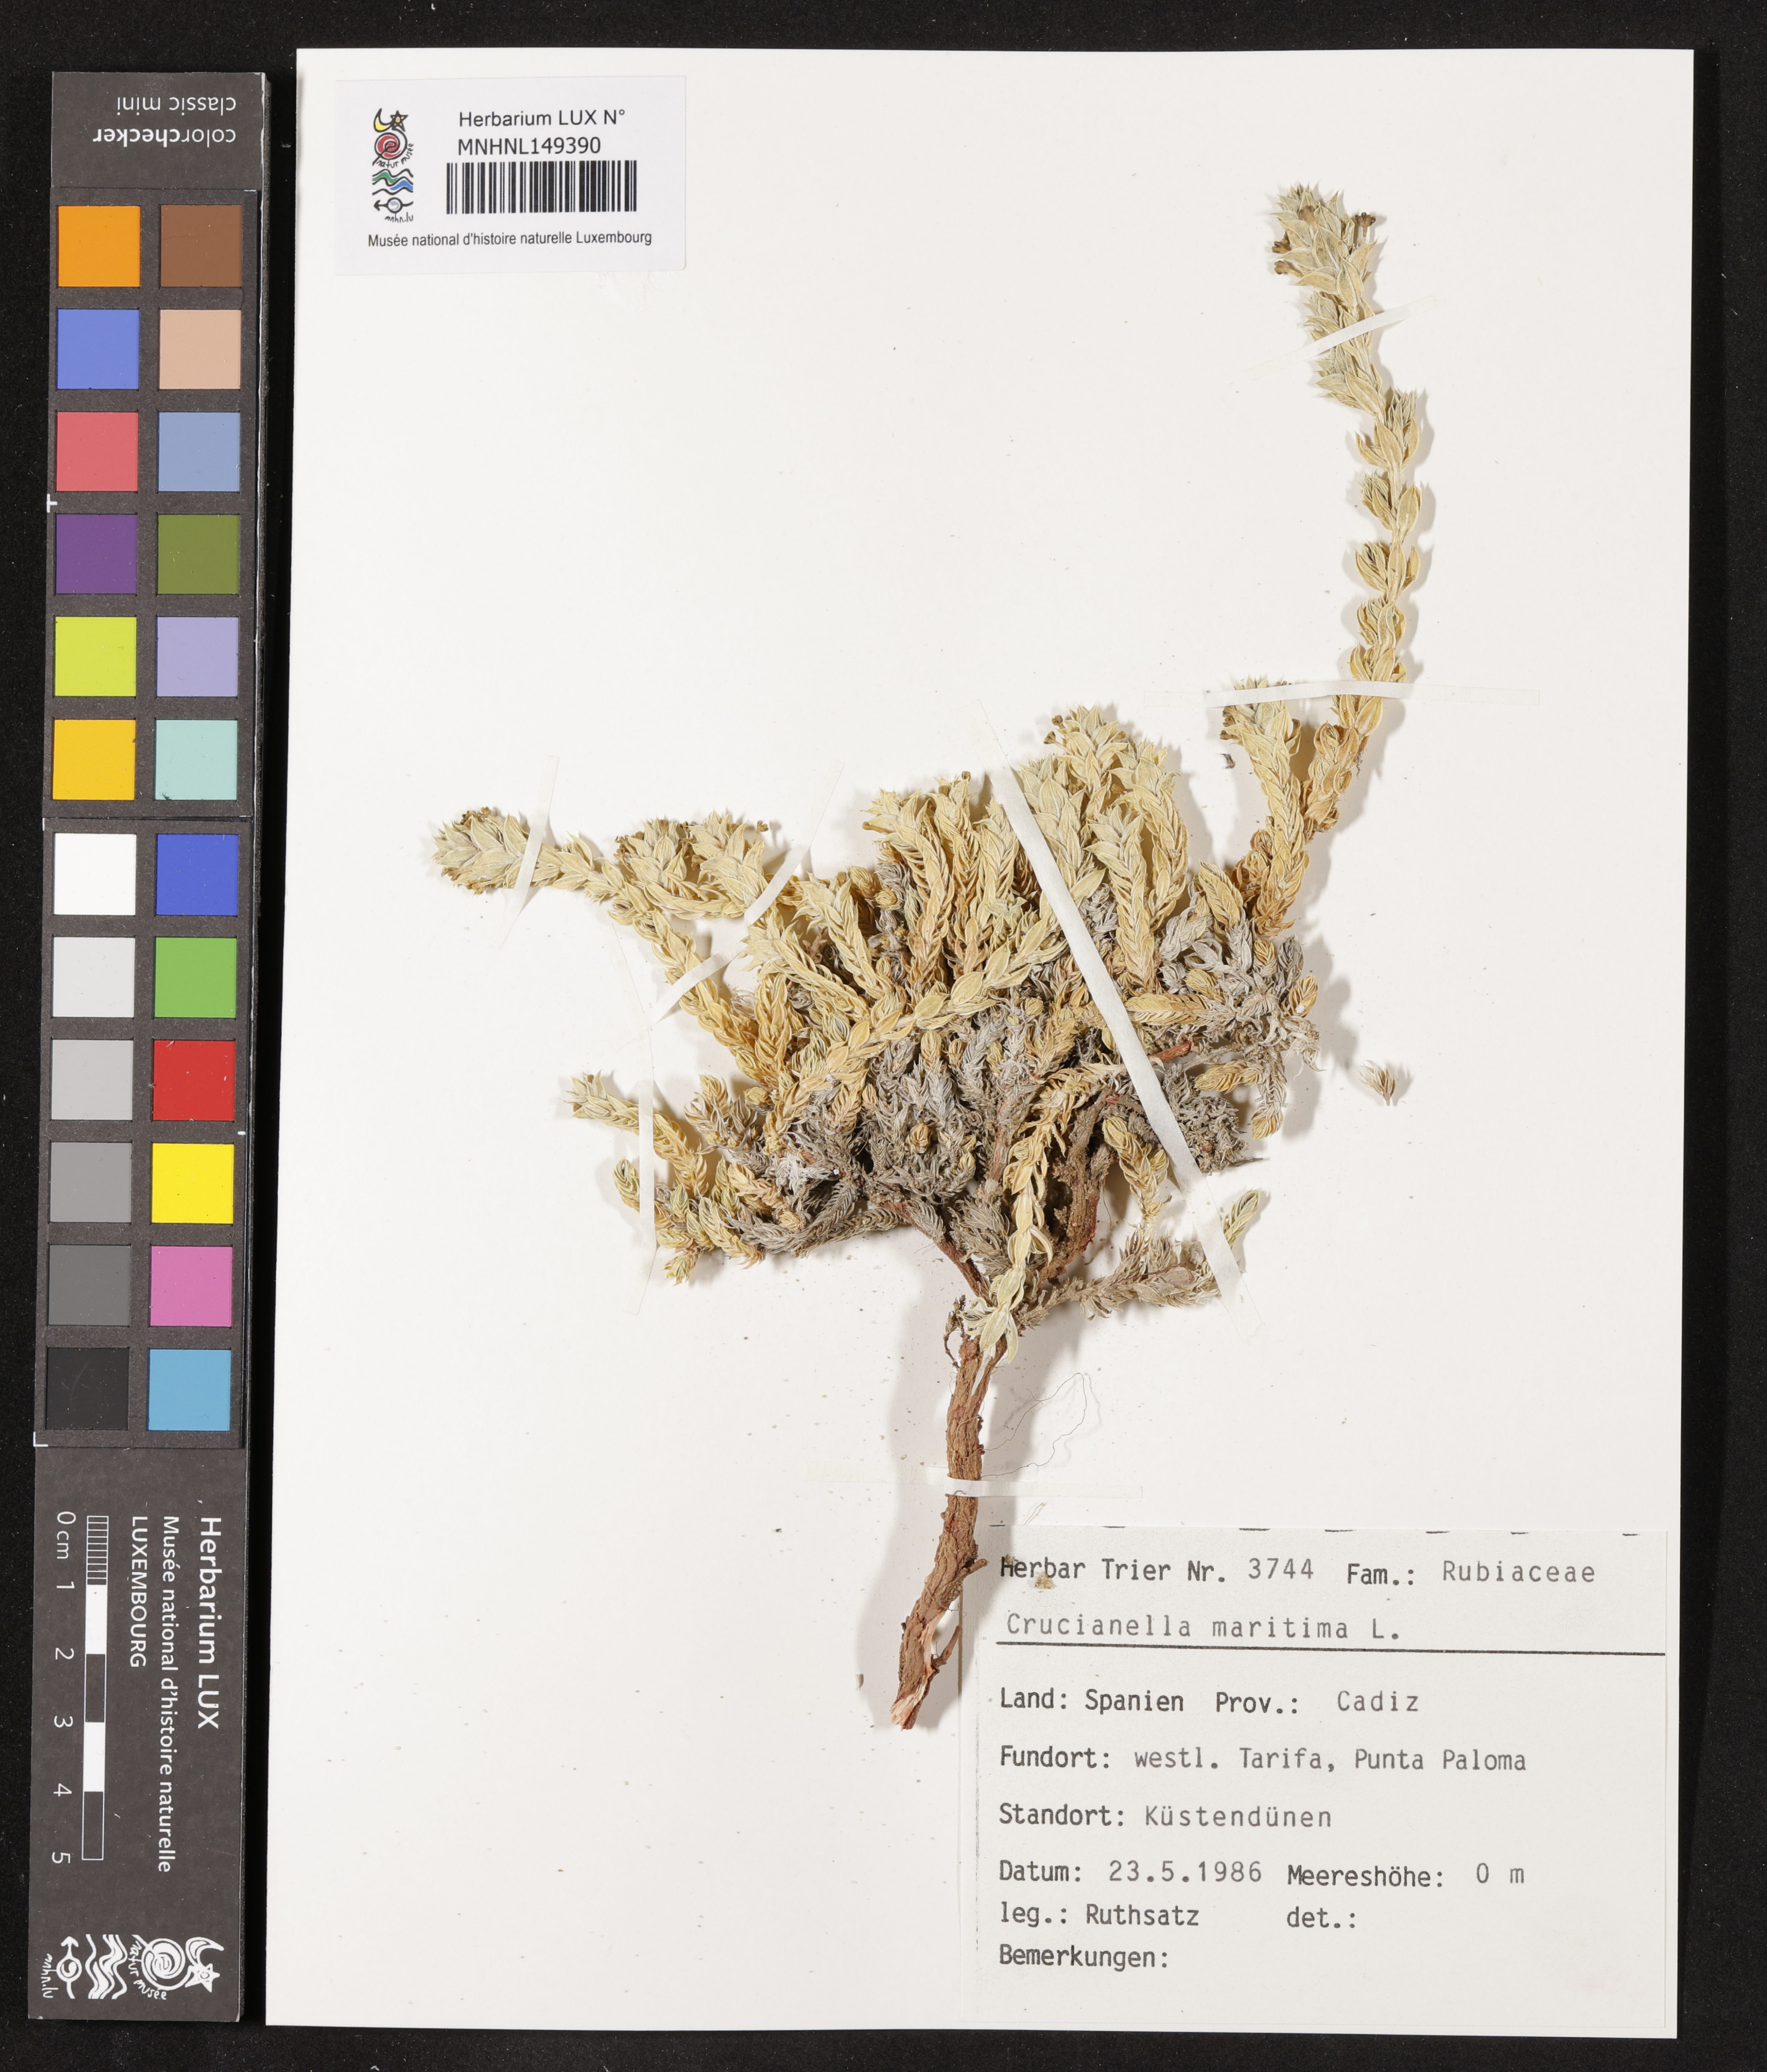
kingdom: Plantae
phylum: Tracheophyta
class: Magnoliopsida
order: Gentianales
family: Rubiaceae
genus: Crucianella
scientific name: Crucianella maritima
